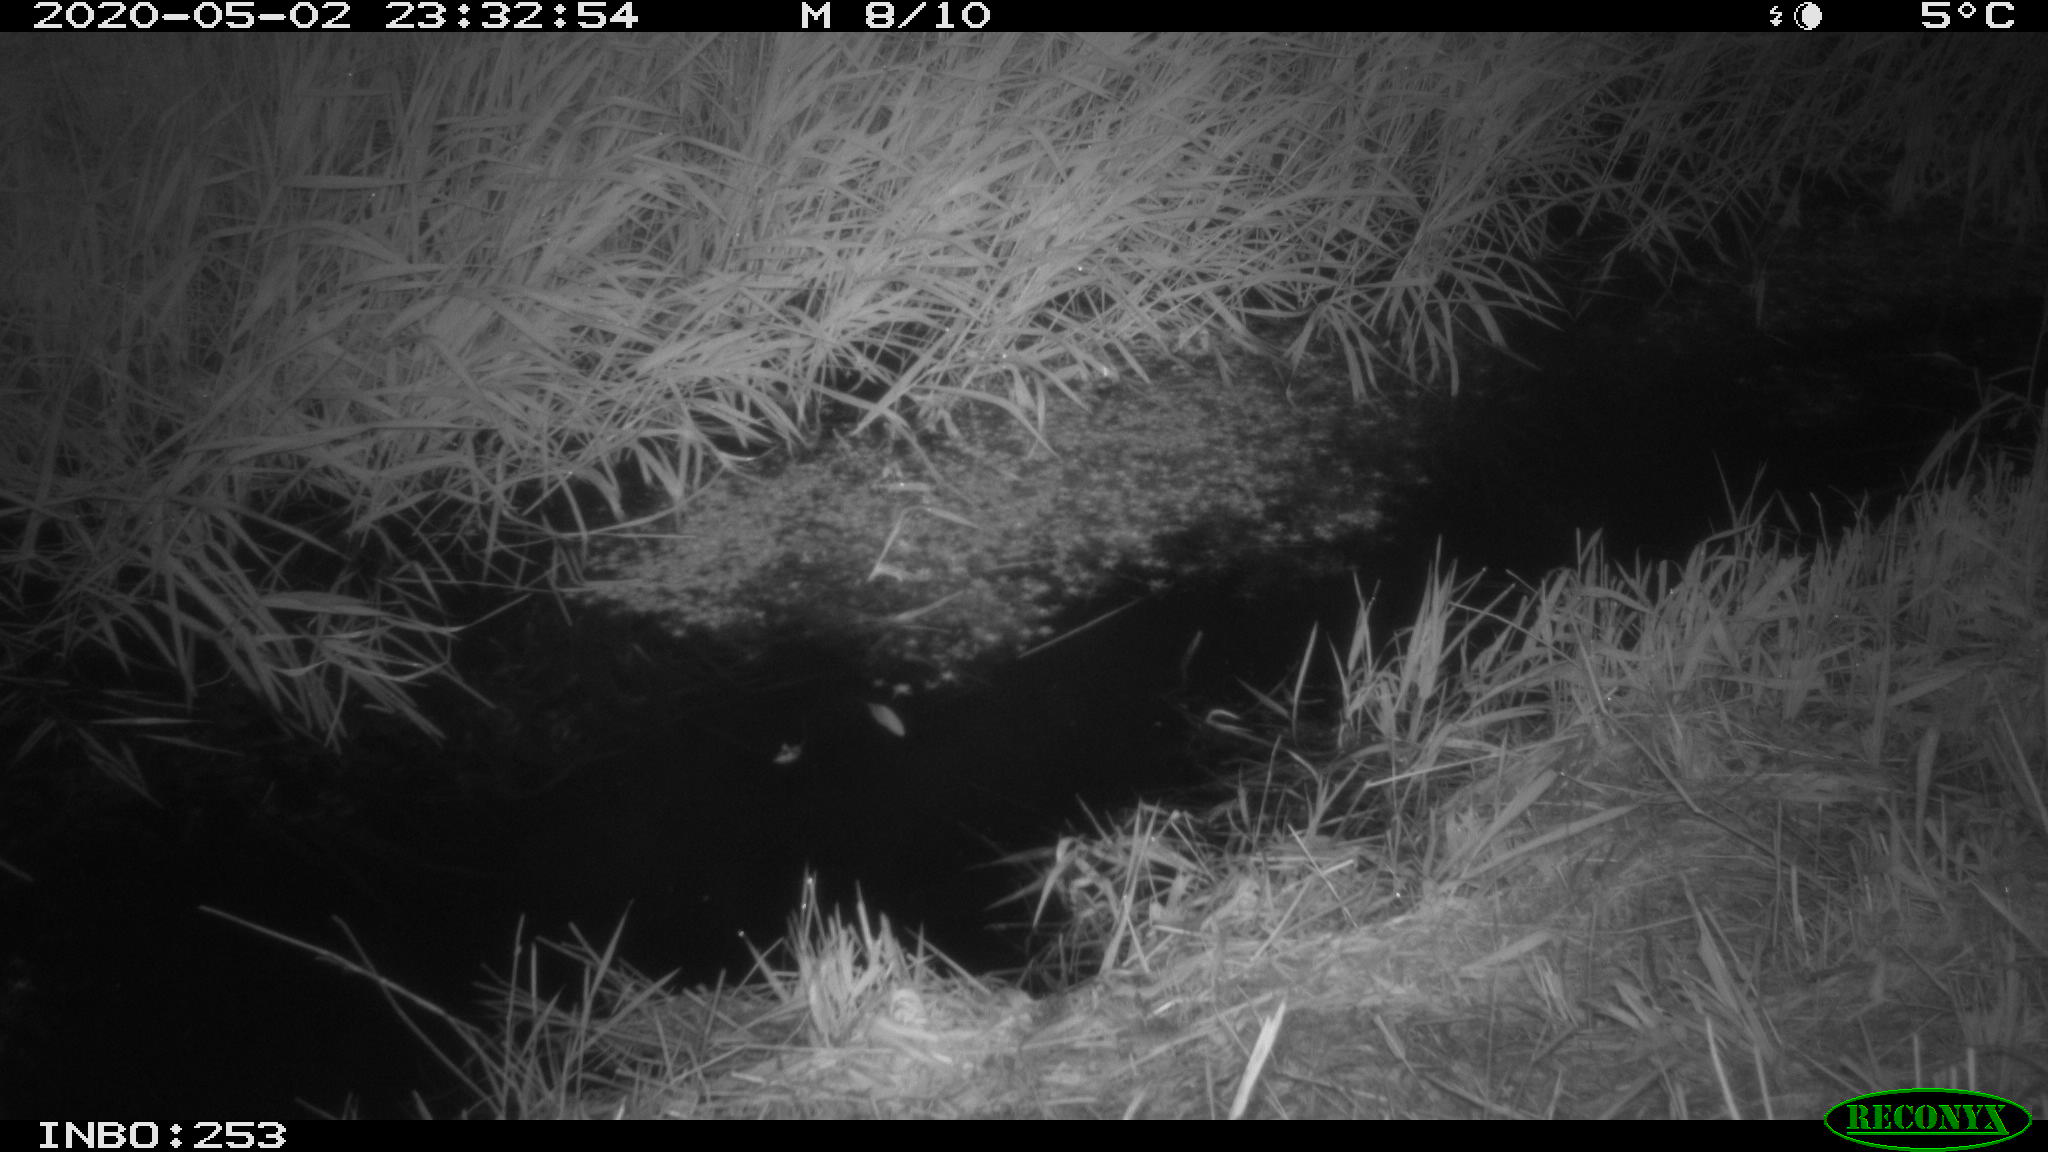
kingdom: Animalia
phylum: Chordata
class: Aves
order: Anseriformes
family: Anatidae
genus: Anas
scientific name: Anas platyrhynchos
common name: Mallard
